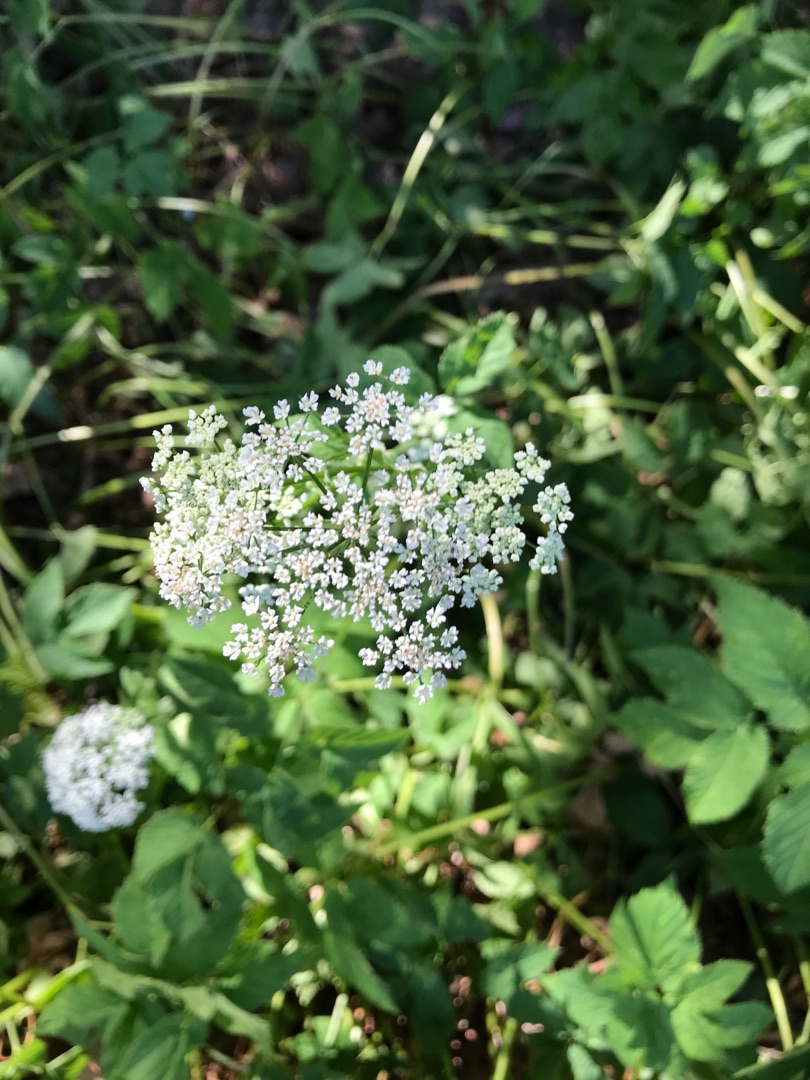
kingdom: Plantae
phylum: Tracheophyta
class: Magnoliopsida
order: Apiales
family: Apiaceae
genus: Aegopodium
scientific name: Aegopodium podagraria
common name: Skvalderkål
